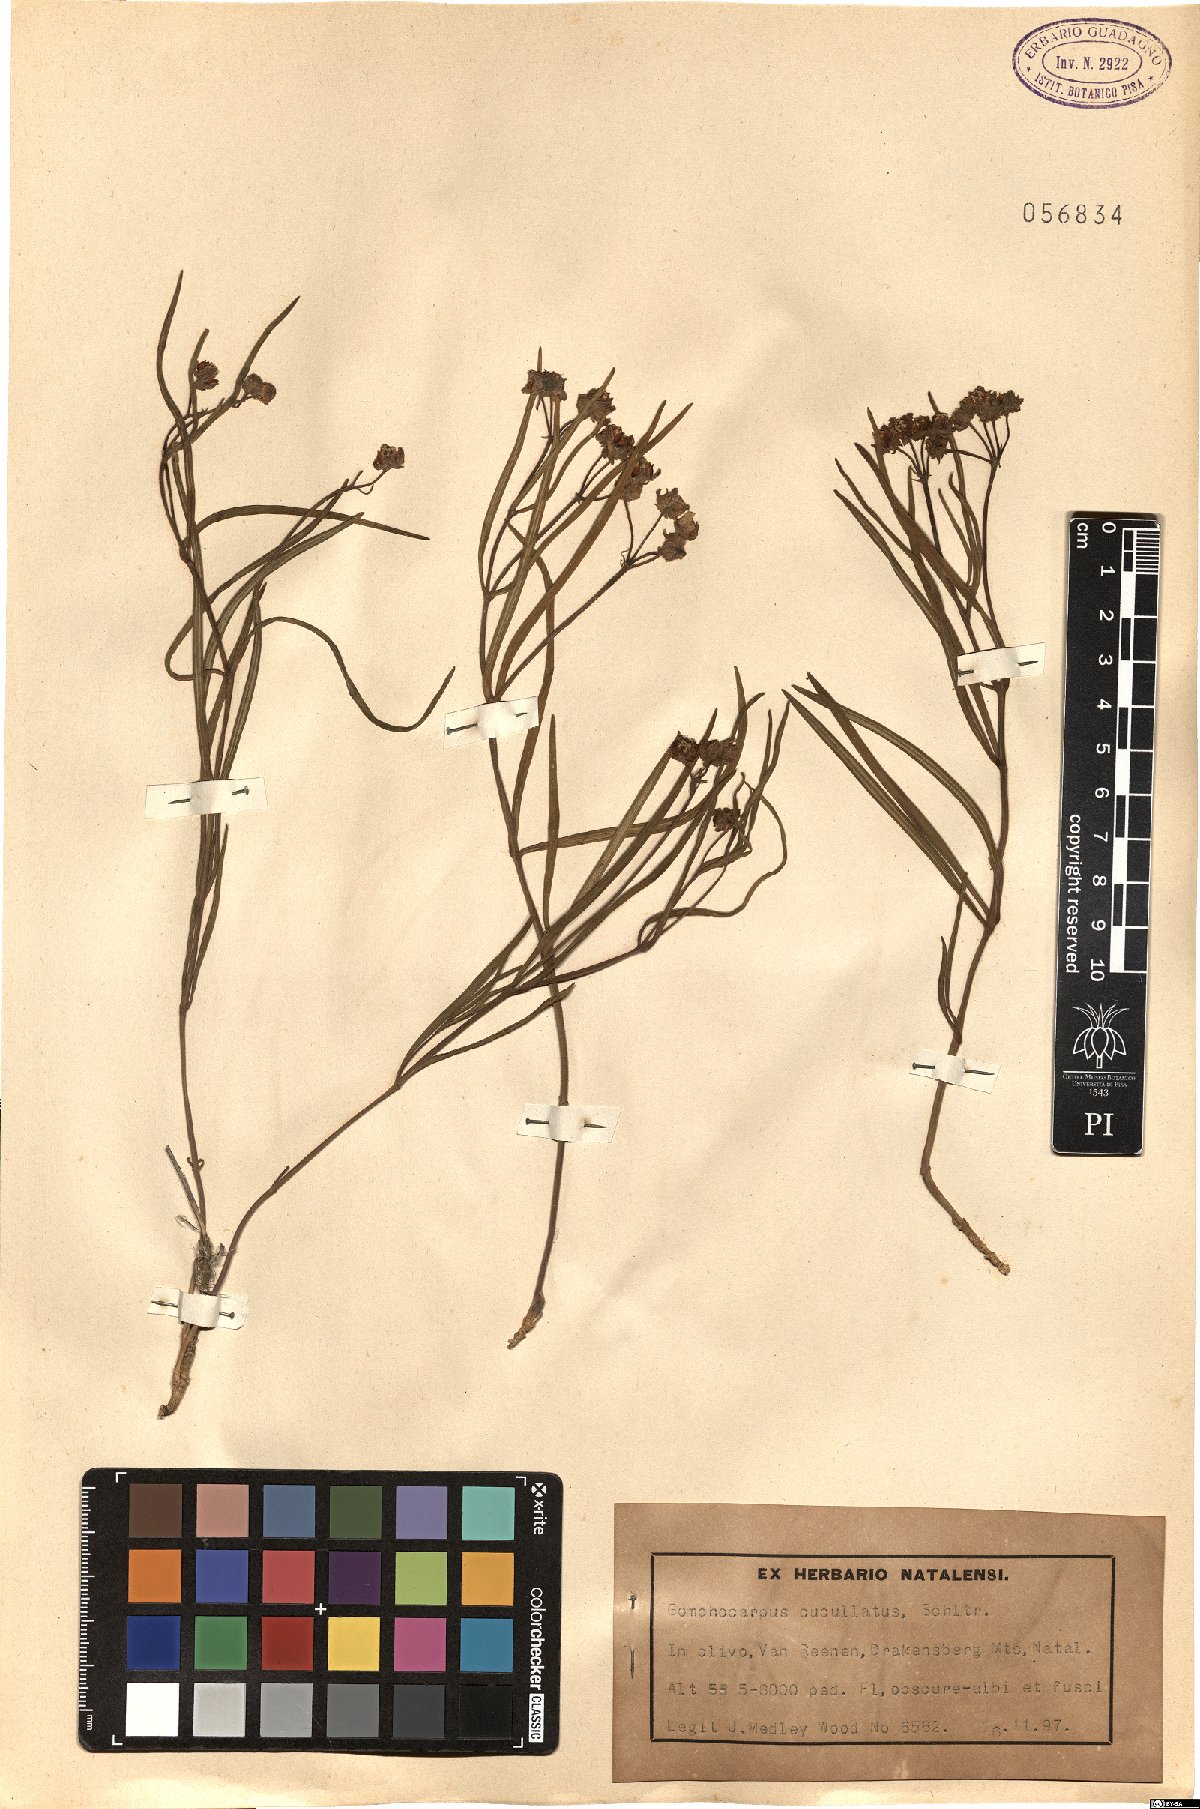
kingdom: Plantae
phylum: Tracheophyta
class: Magnoliopsida
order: Gentianales
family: Apocynaceae
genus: Asclepias
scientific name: Asclepias cucullata
